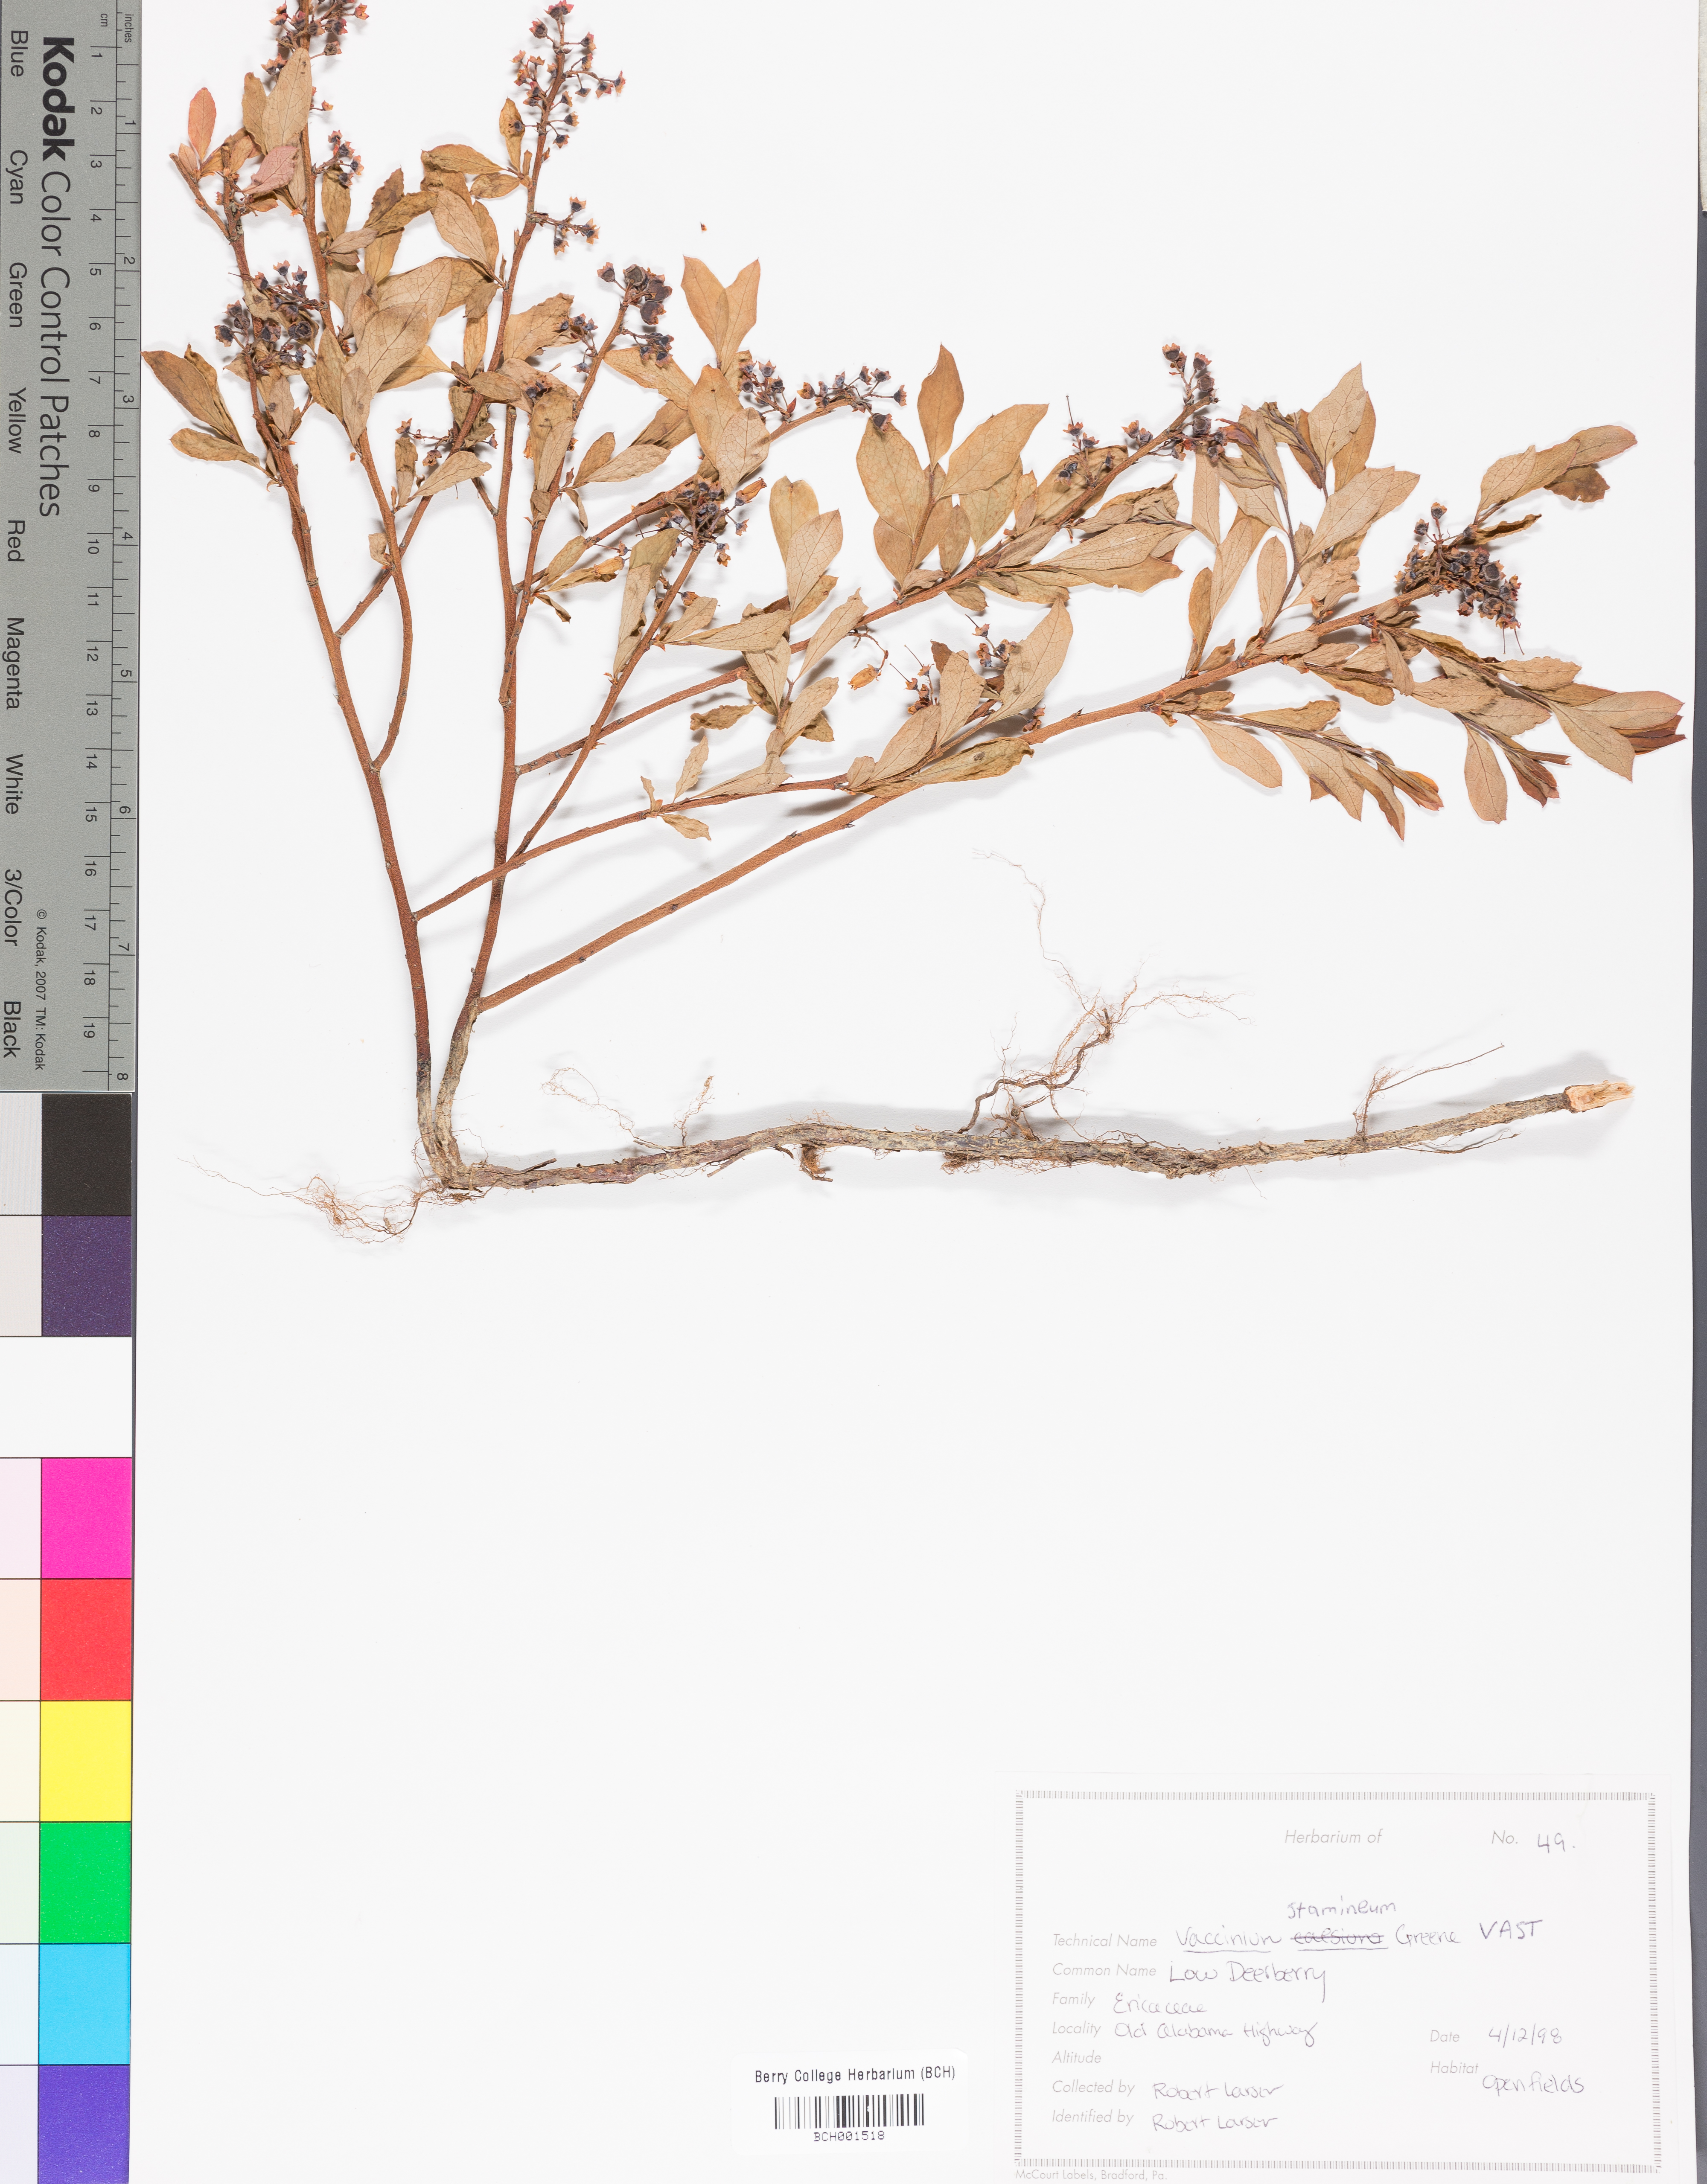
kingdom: Plantae
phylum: Tracheophyta
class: Magnoliopsida
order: Ericales
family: Ericaceae
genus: Vaccinium
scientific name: Vaccinium stamineum
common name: Deerberry
